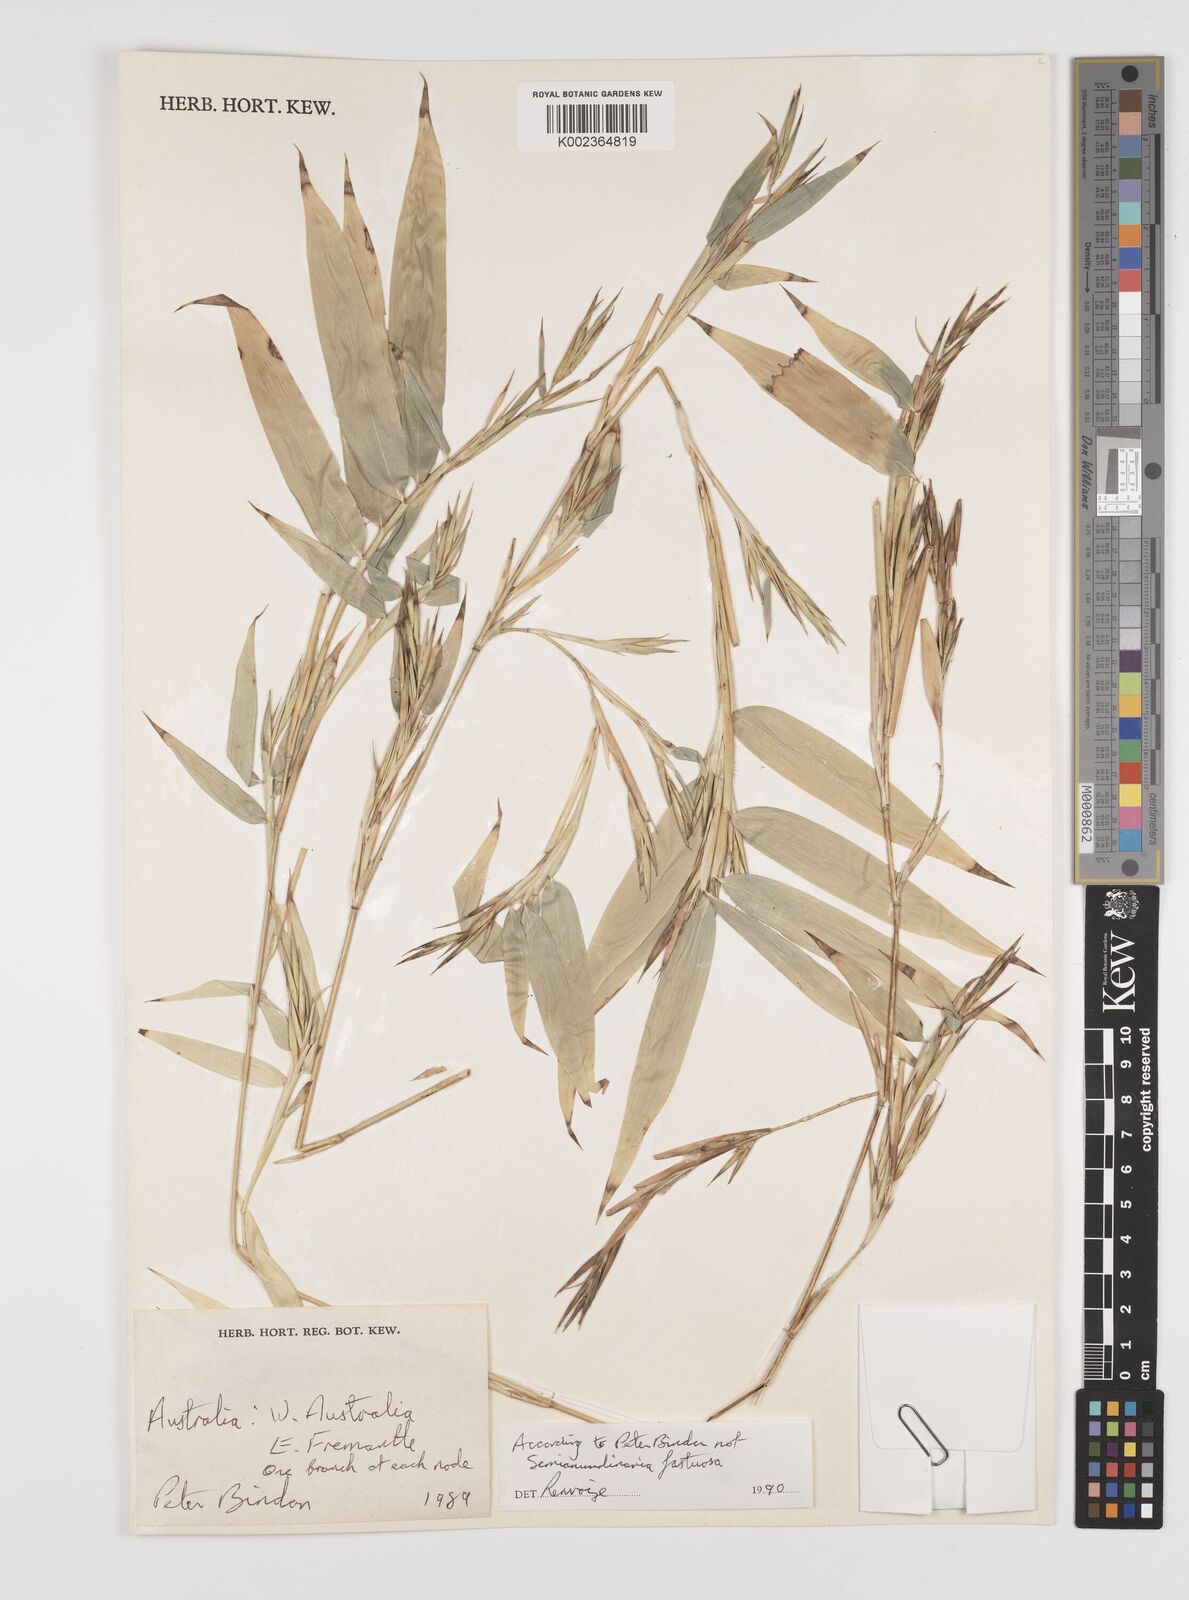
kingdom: Plantae
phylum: Tracheophyta
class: Liliopsida
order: Poales
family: Poaceae
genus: Semiarundinaria
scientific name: Semiarundinaria fastuosa
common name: Narihira bamboo
